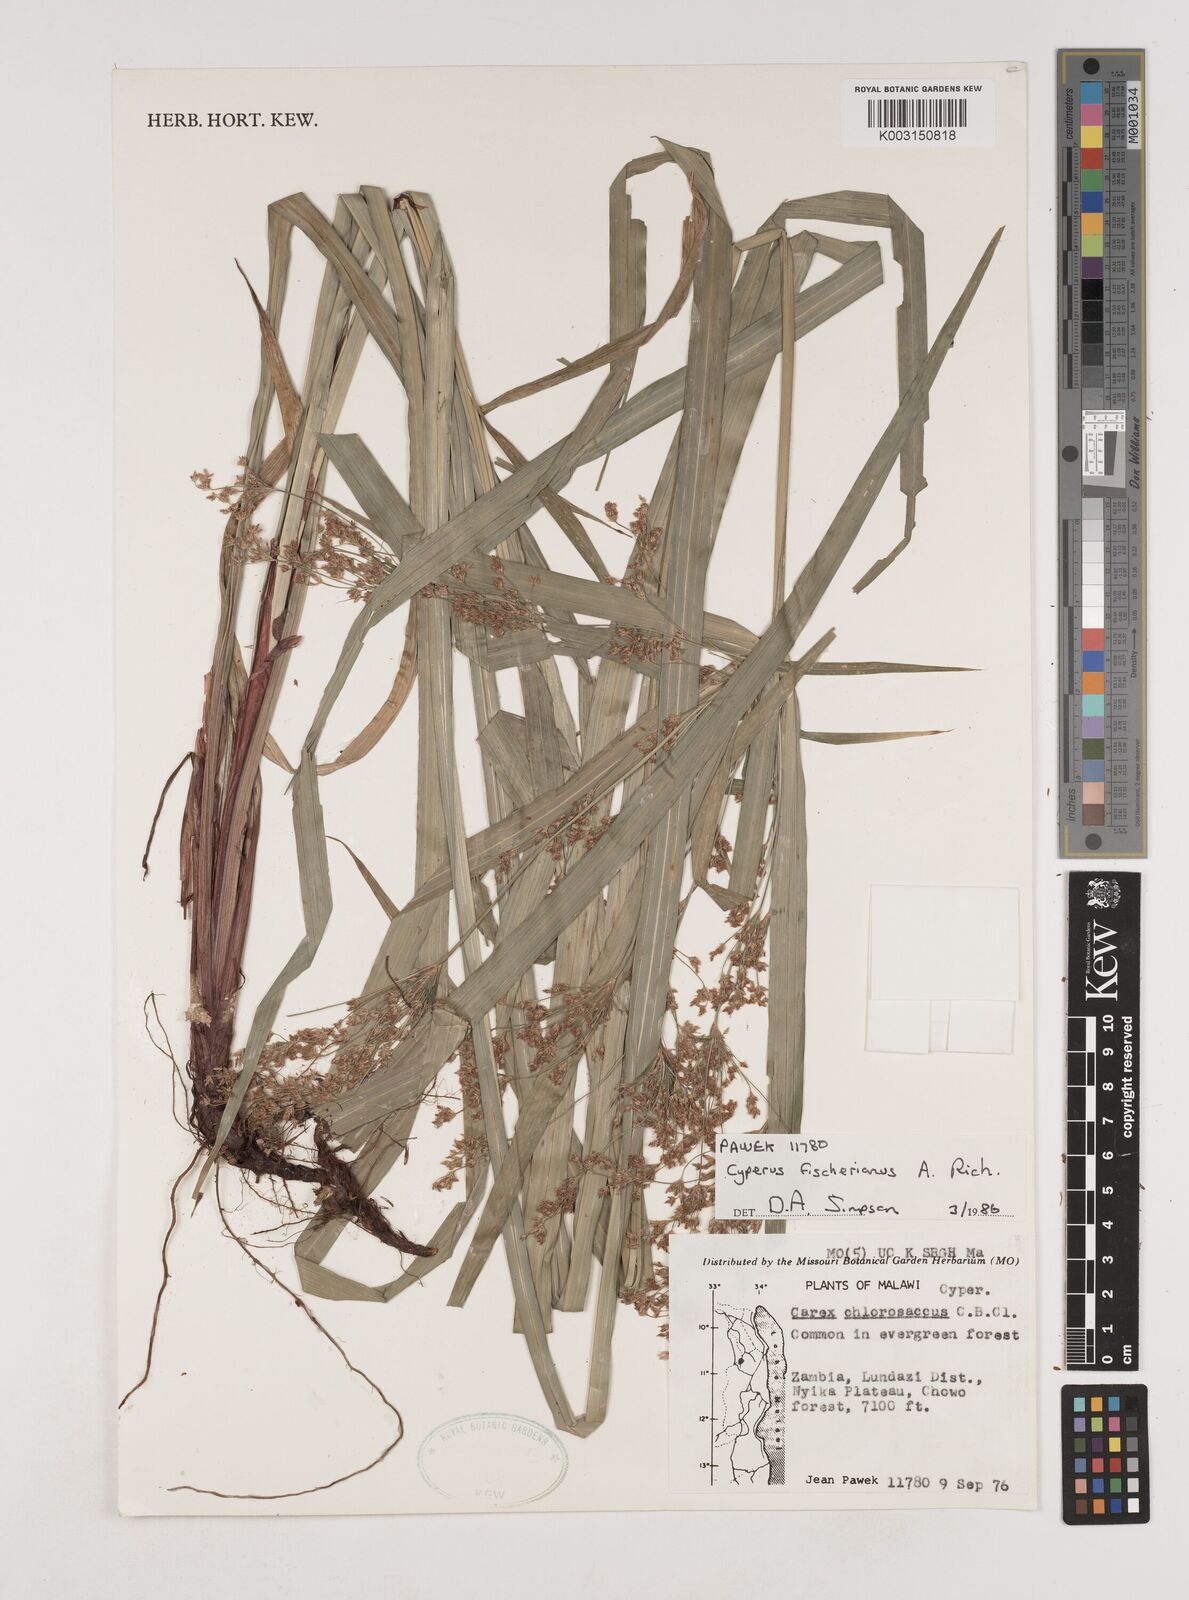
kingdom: Plantae
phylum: Tracheophyta
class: Liliopsida
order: Poales
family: Cyperaceae
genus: Cyperus
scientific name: Cyperus fischerianus
